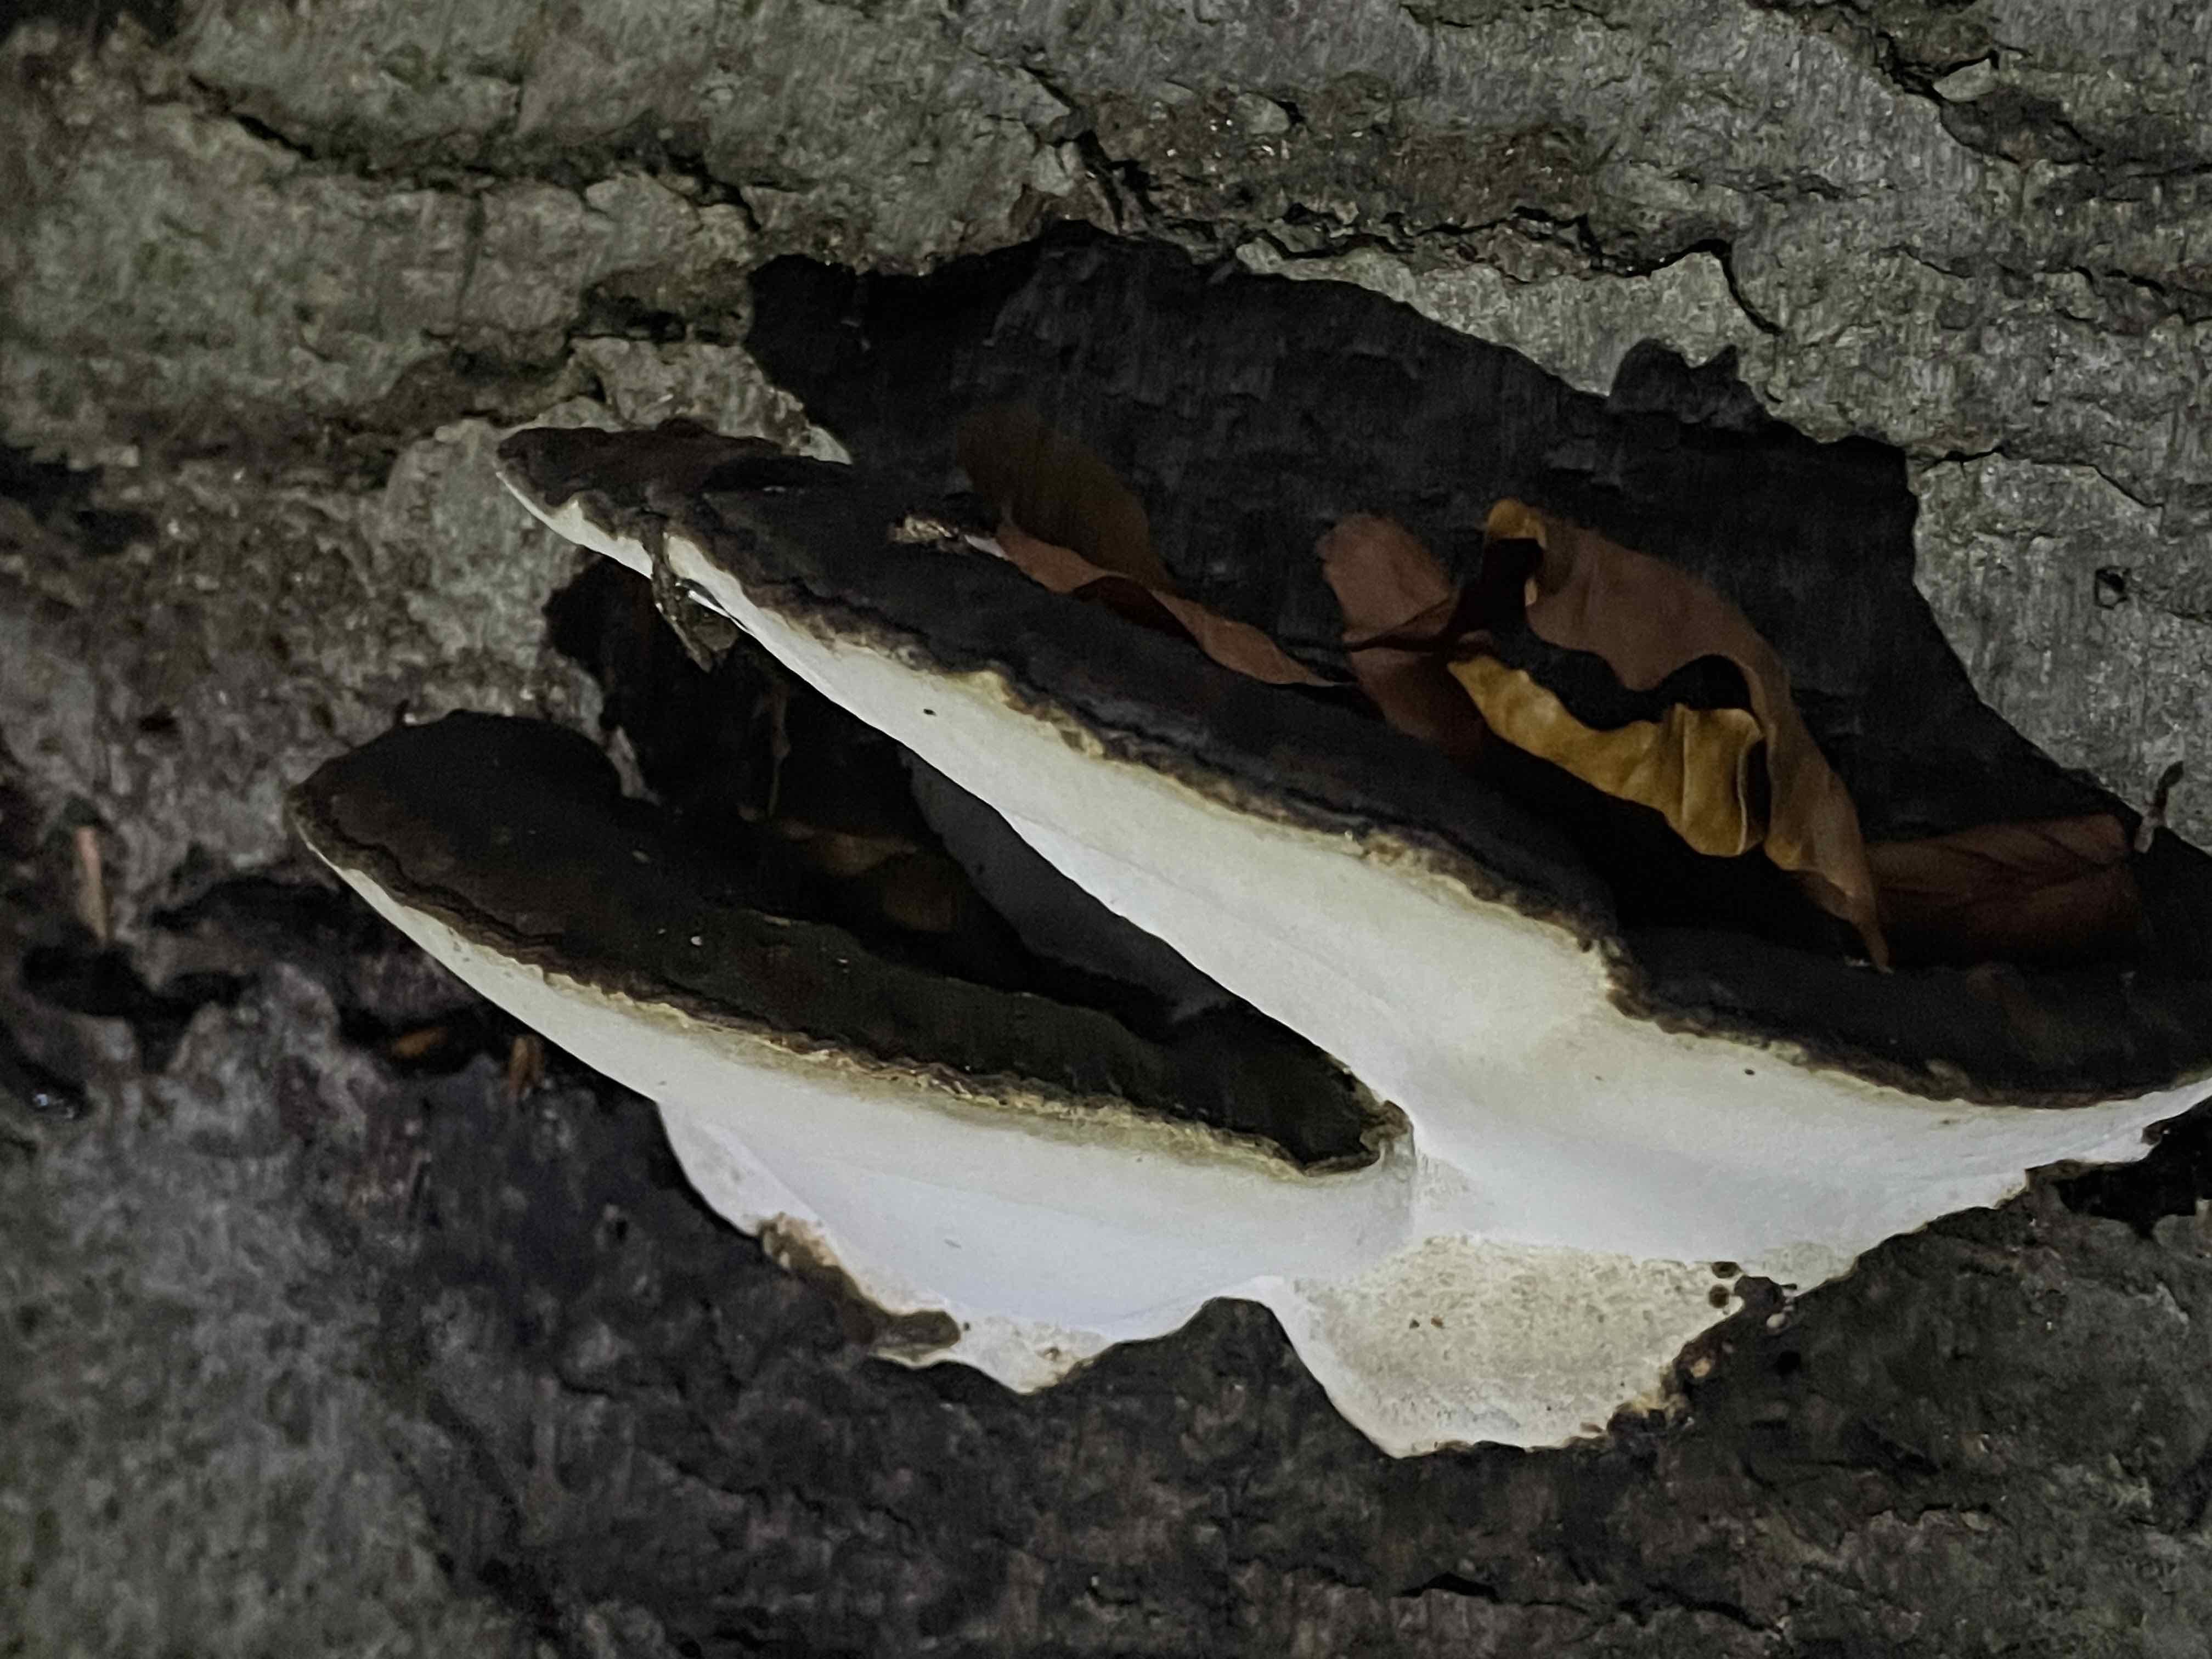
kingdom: Fungi
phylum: Basidiomycota
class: Agaricomycetes
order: Polyporales
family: Ischnodermataceae
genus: Ischnoderma
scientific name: Ischnoderma resinosum
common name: løv-tjæreporesvamp
